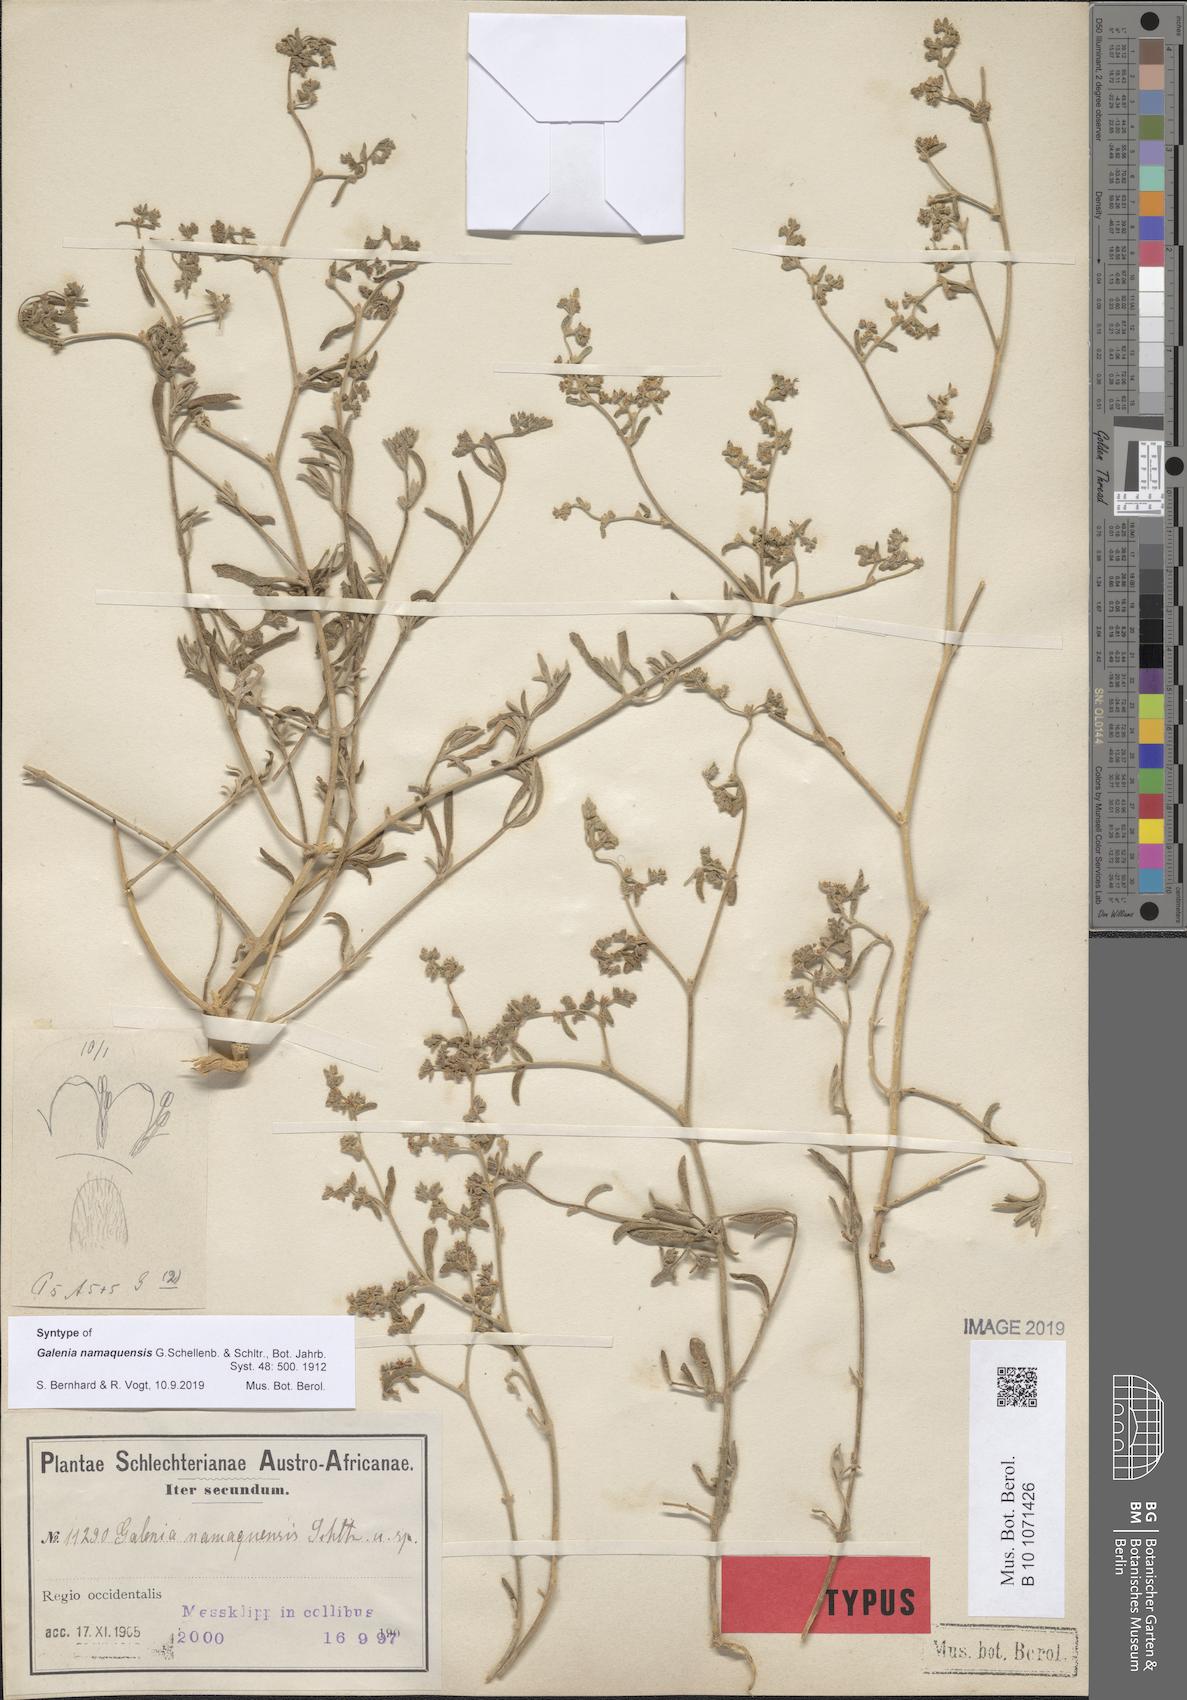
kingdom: Plantae
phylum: Tracheophyta
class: Magnoliopsida
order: Caryophyllales
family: Aizoaceae
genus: Aizoon
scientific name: Aizoon crystallinum
